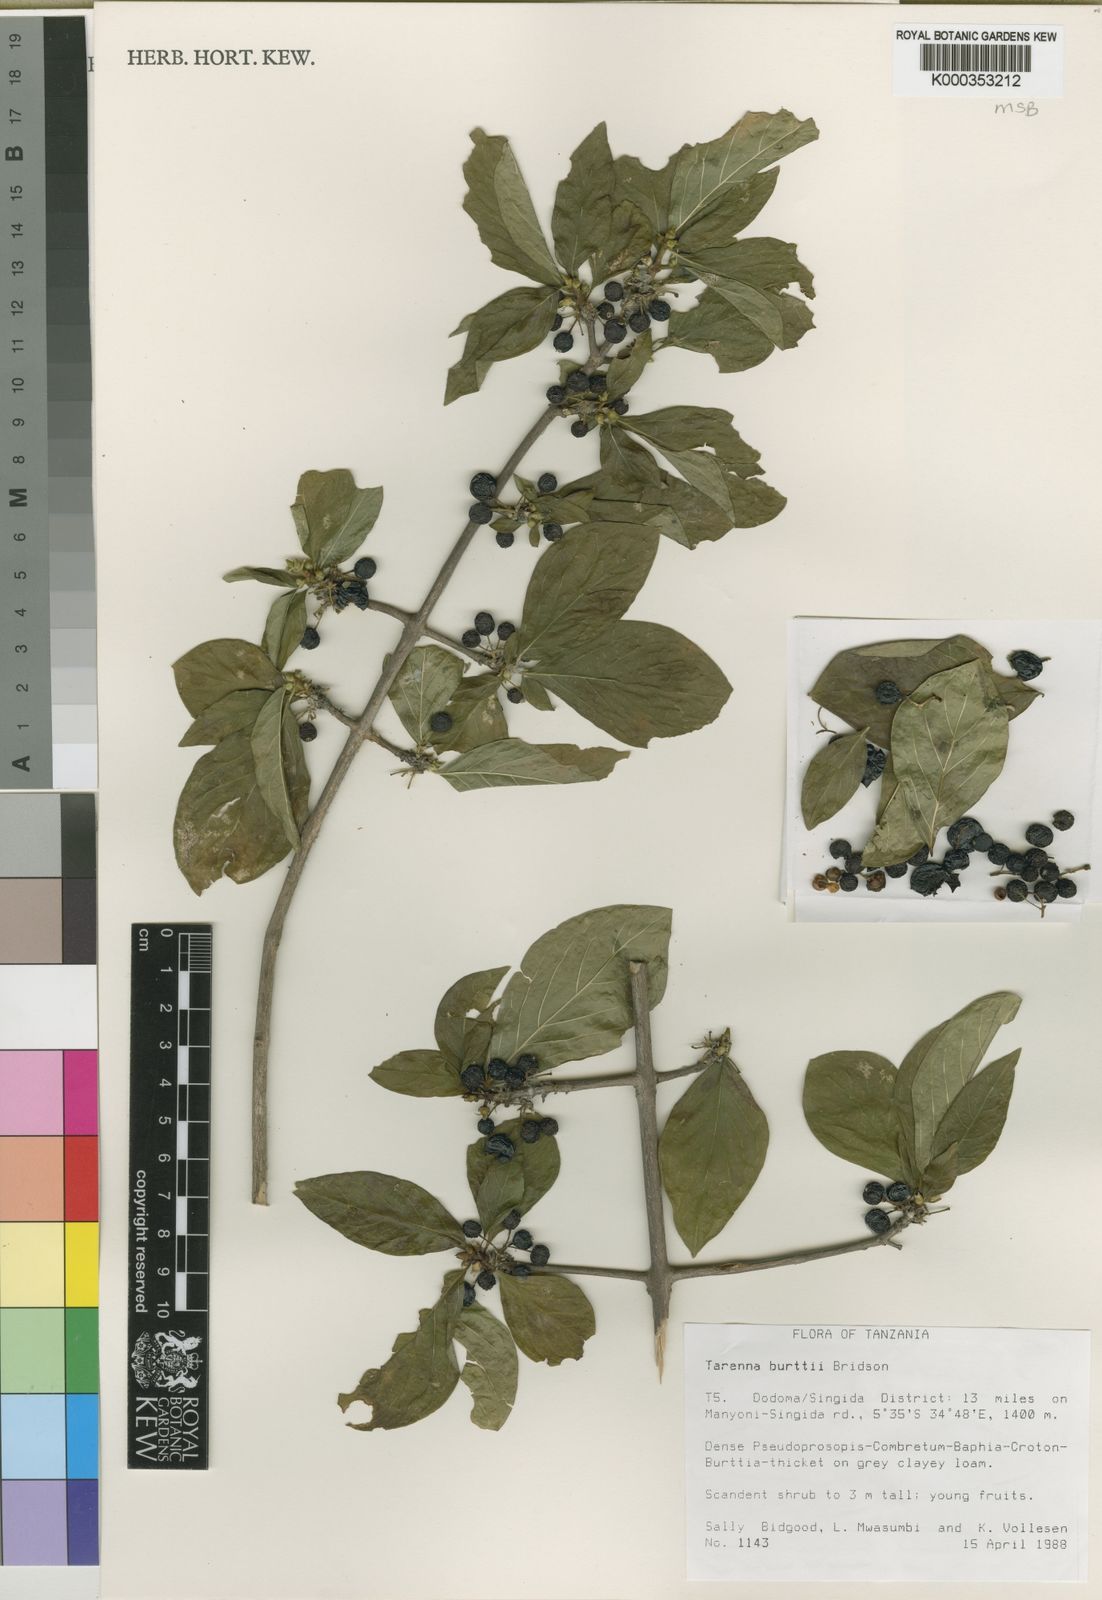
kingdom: Plantae
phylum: Tracheophyta
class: Magnoliopsida
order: Gentianales
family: Rubiaceae
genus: Tarenna
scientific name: Tarenna burttii
